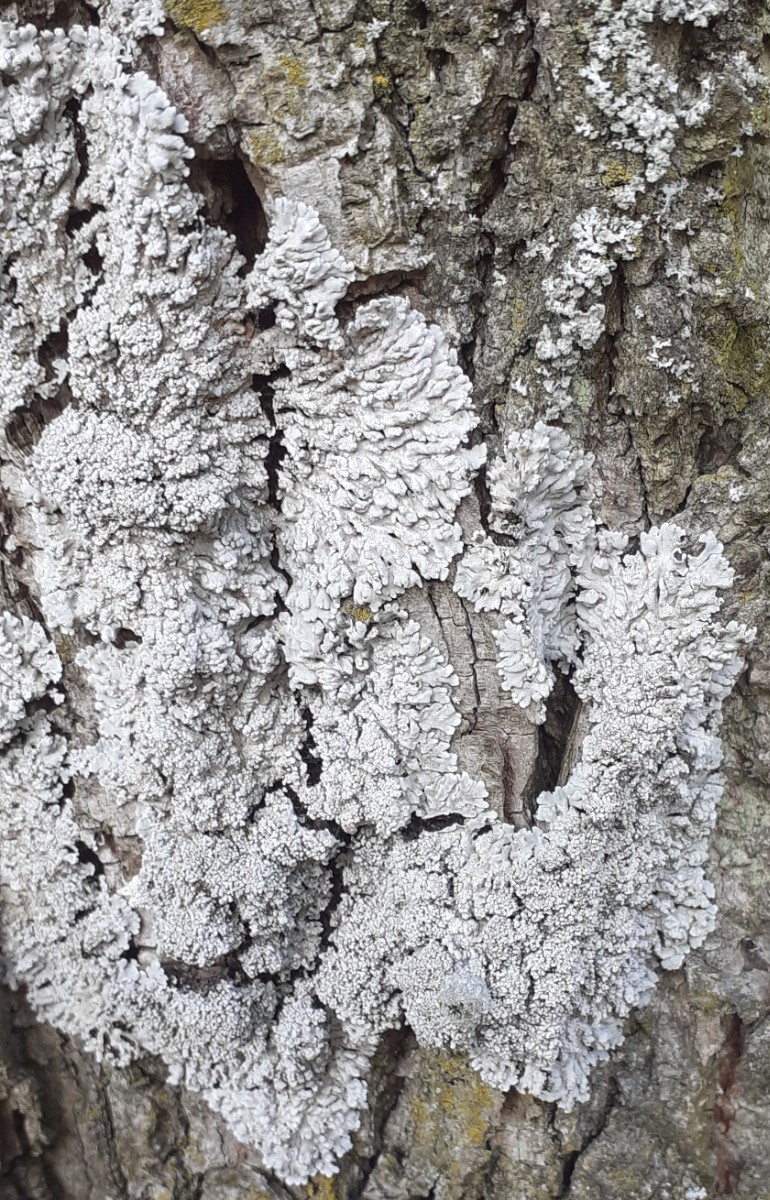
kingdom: Fungi
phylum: Ascomycota
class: Lecanoromycetes
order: Caliciales
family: Physciaceae
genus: Physconia
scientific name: Physconia
